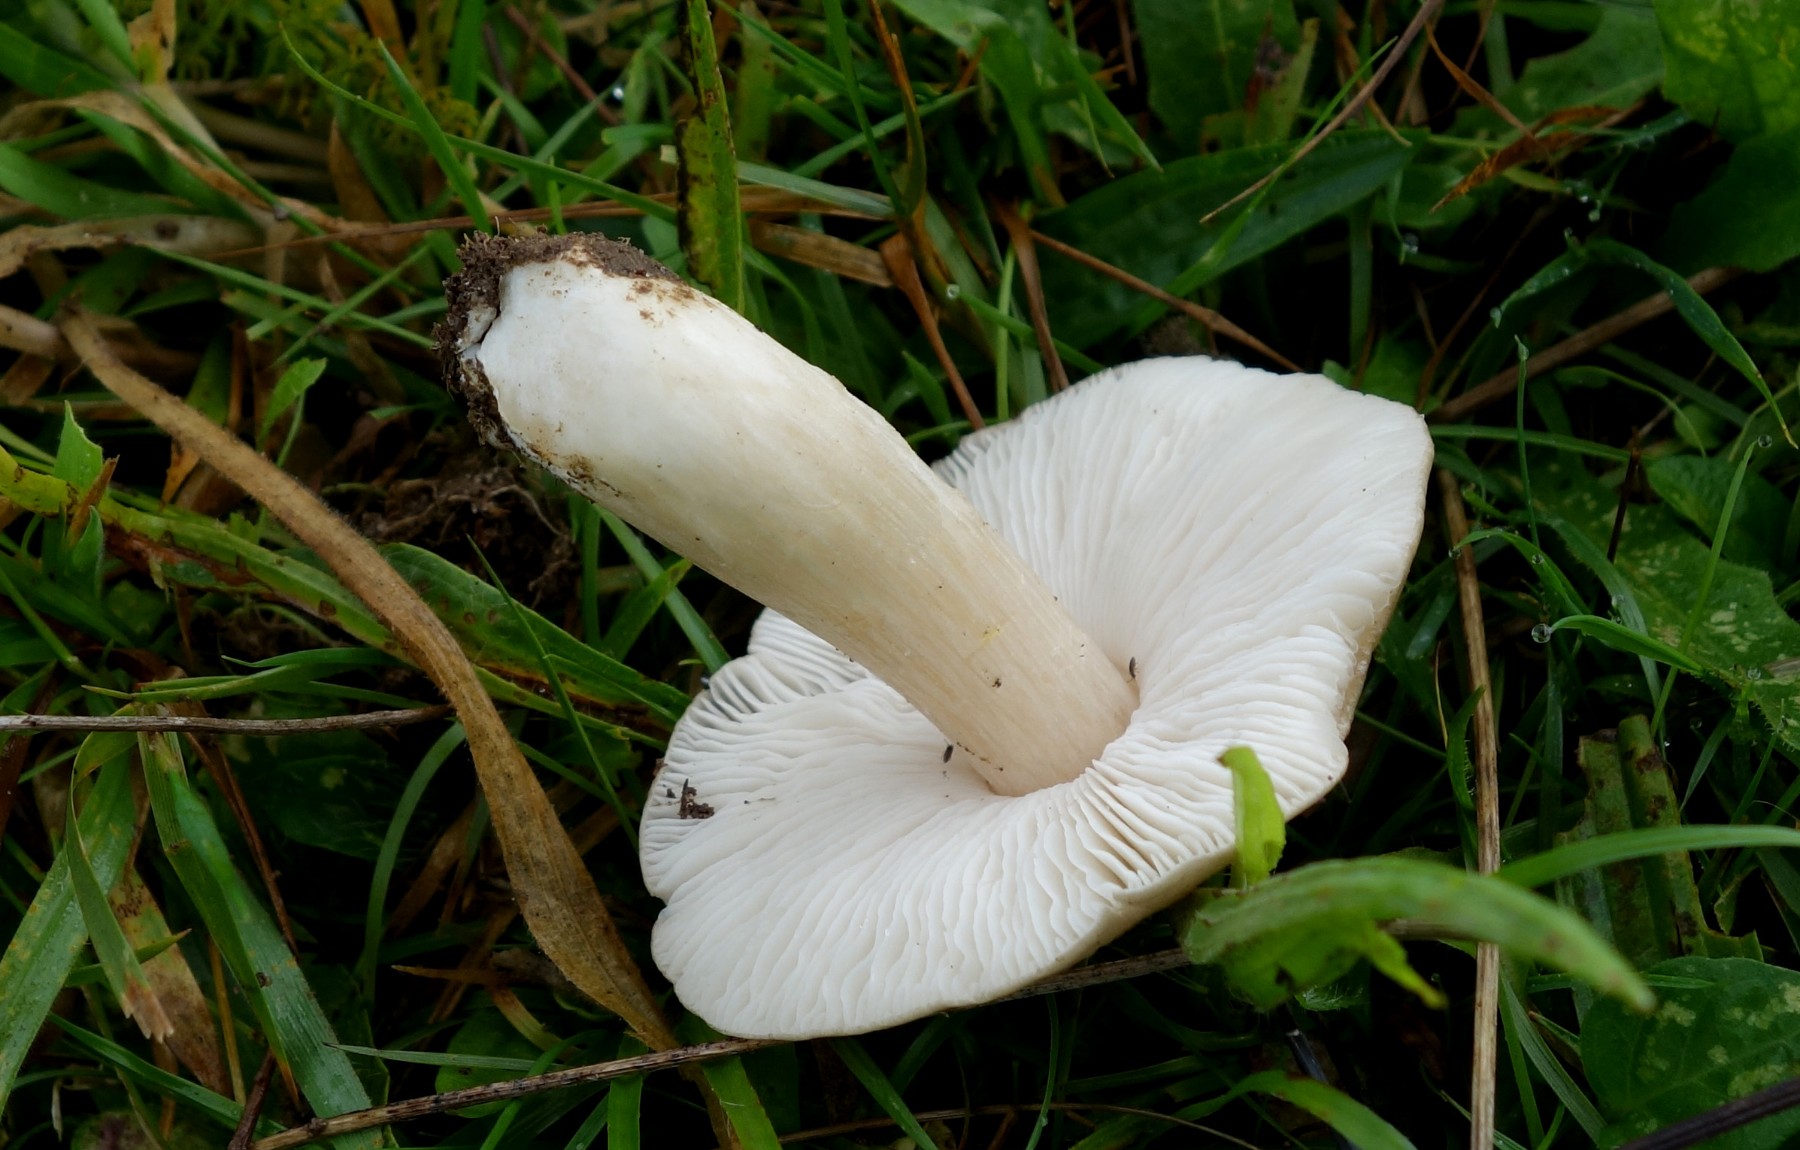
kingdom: Fungi
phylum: Basidiomycota
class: Agaricomycetes
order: Agaricales
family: Entolomataceae
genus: Entoloma
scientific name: Entoloma prunuloides
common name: mel-rødblad
